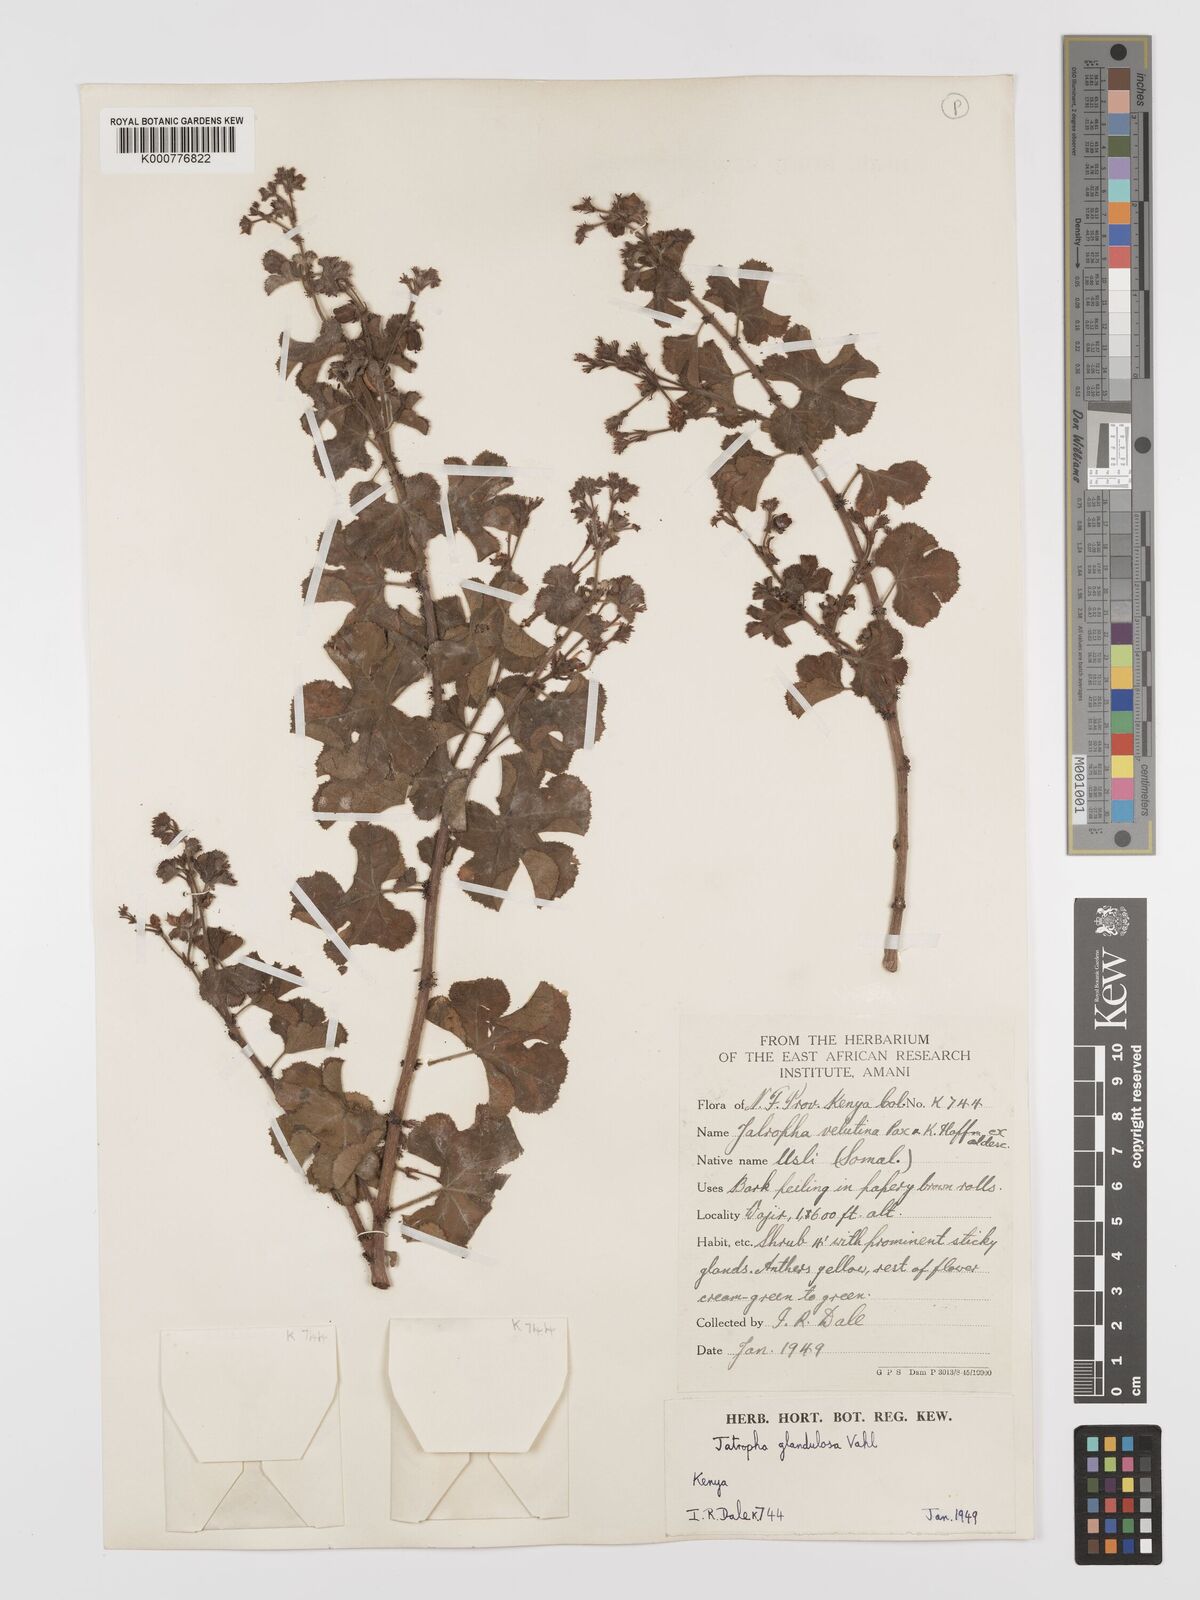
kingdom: Plantae
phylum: Tracheophyta
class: Magnoliopsida
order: Malpighiales
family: Euphorbiaceae
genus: Jatropha
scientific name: Jatropha pelargoniifolia
